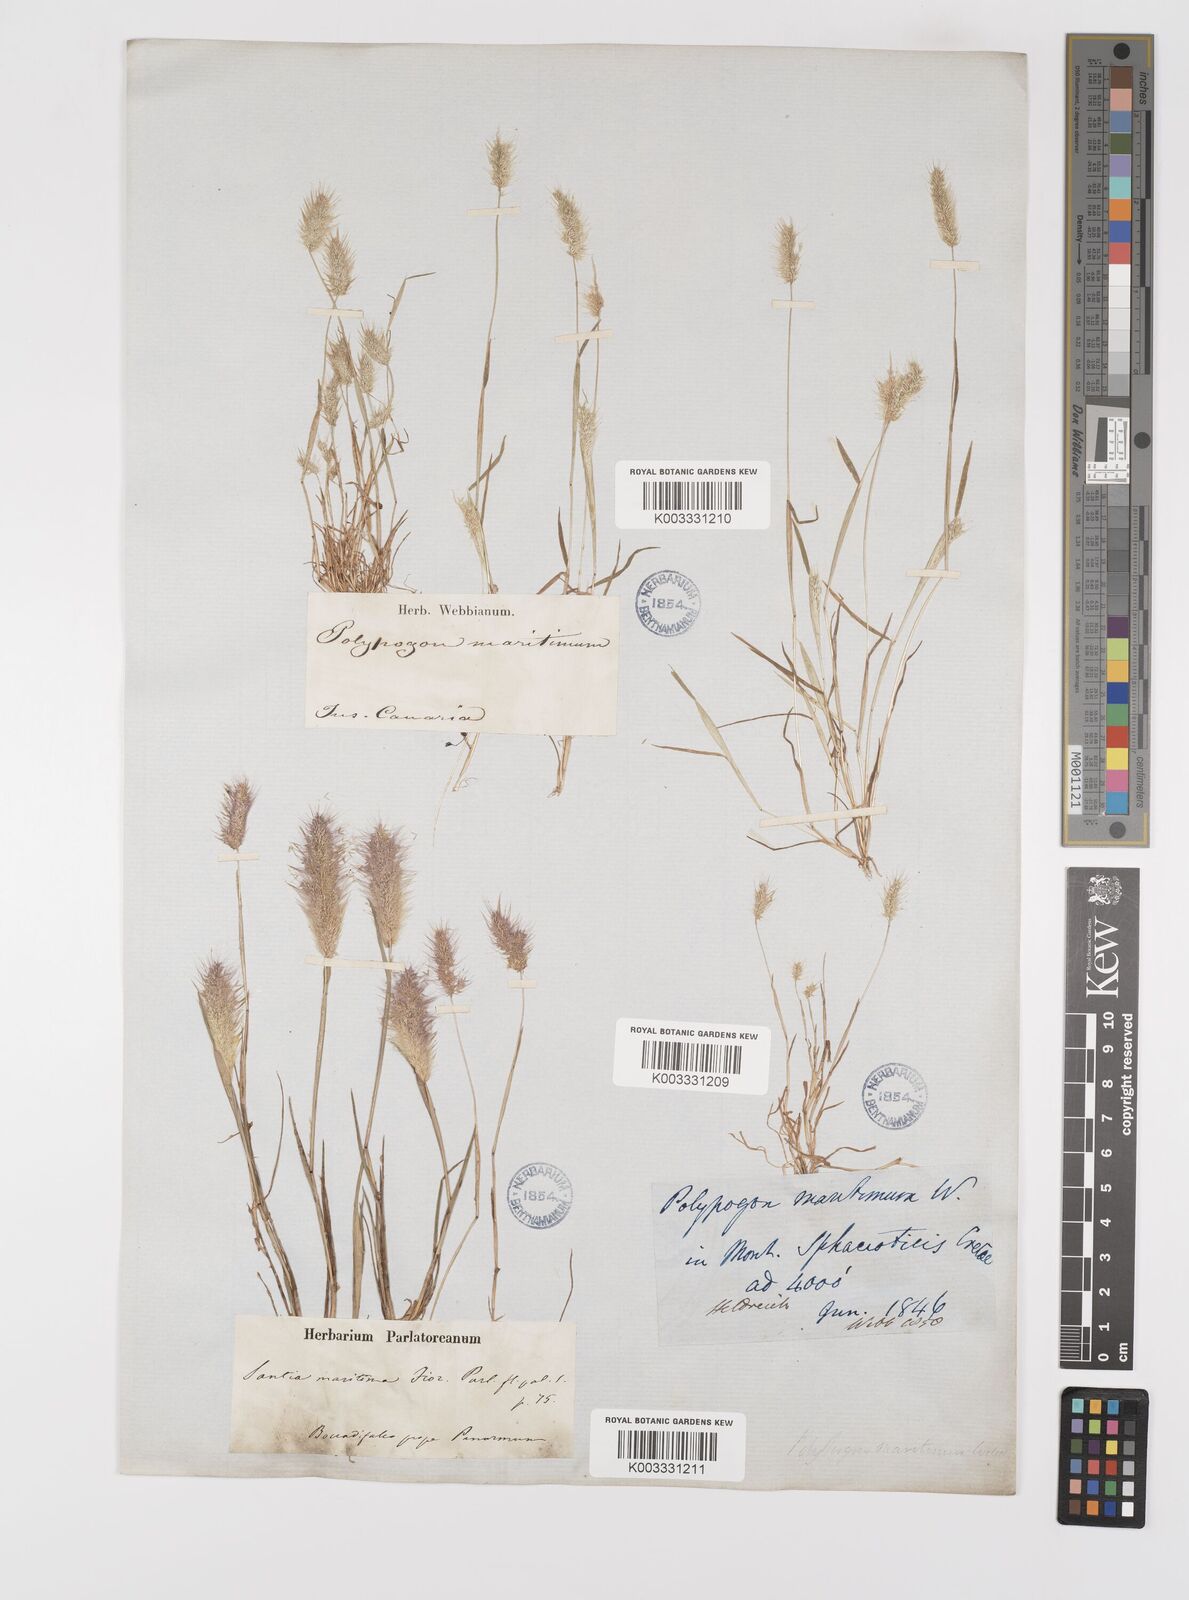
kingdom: Plantae
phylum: Tracheophyta
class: Liliopsida
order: Poales
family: Poaceae
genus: Polypogon
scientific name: Polypogon maritimus
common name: Mediterranean rabbitsfoot grass
